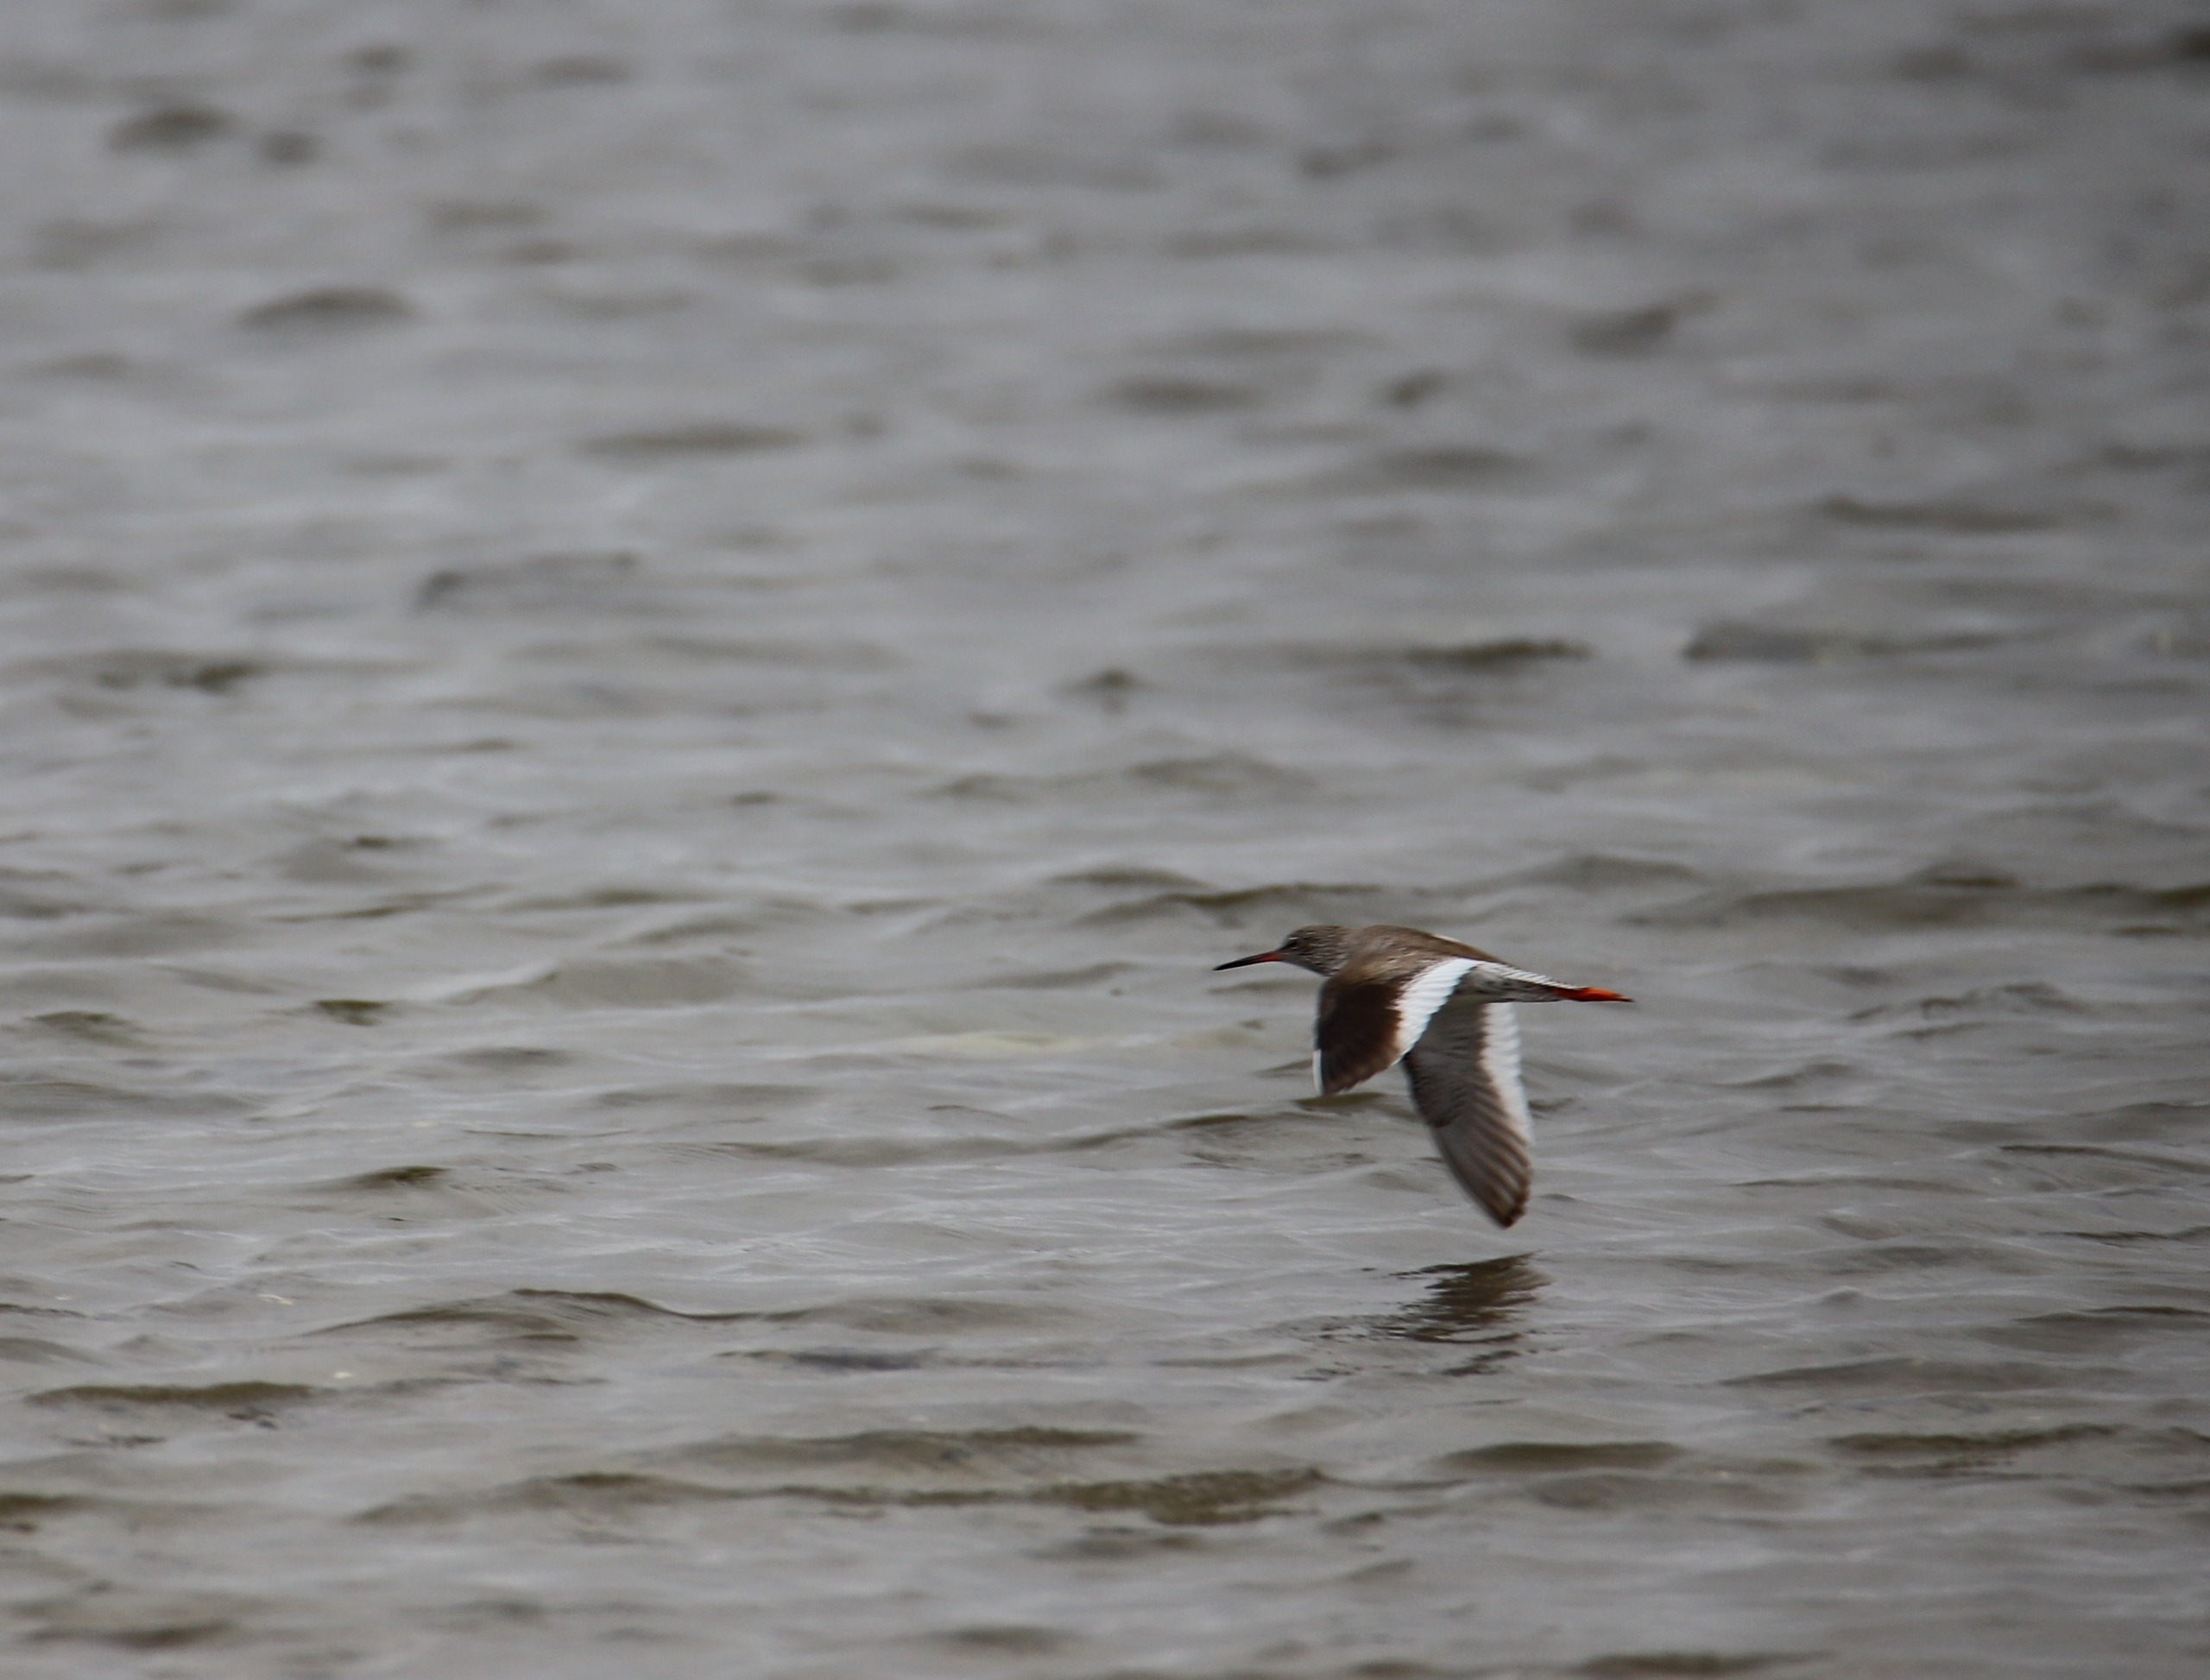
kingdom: Animalia
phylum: Chordata
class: Aves
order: Charadriiformes
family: Scolopacidae
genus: Tringa
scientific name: Tringa totanus
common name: Rødben
